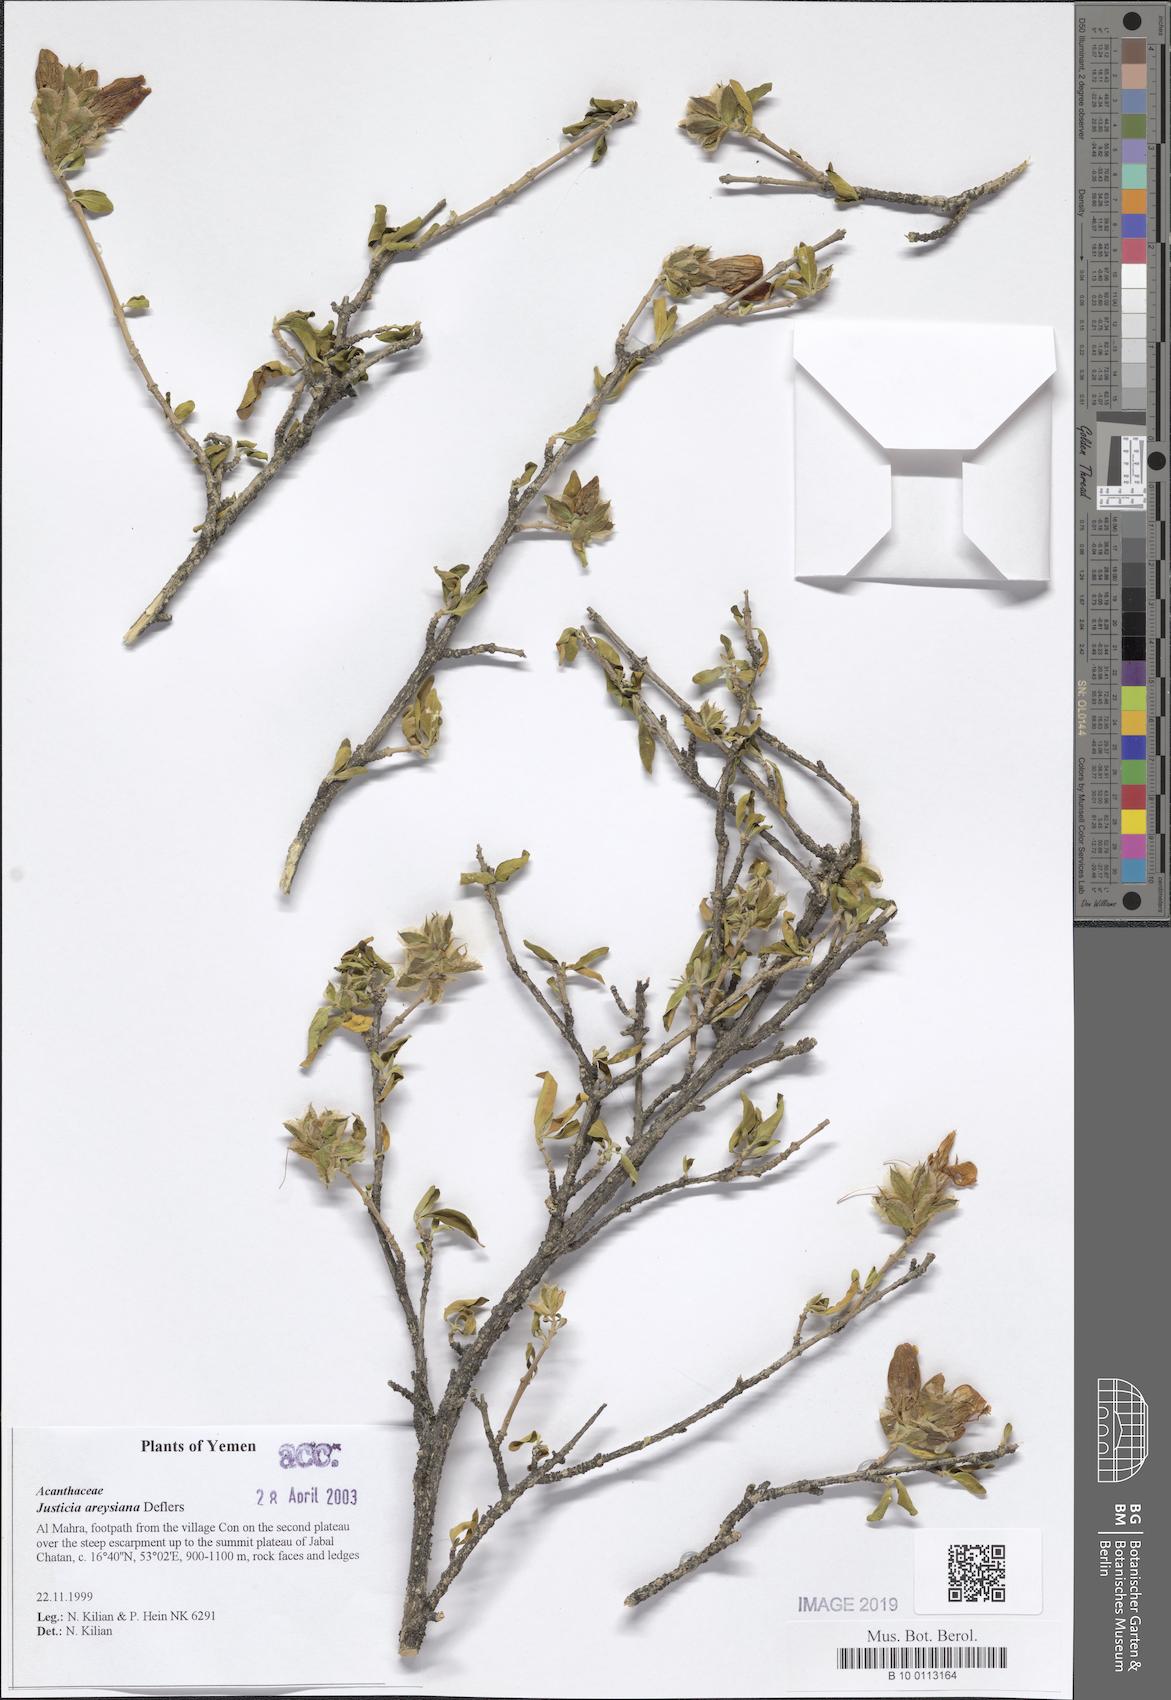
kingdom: Plantae
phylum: Tracheophyta
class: Magnoliopsida
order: Lamiales
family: Acanthaceae
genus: Justicia
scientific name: Justicia areysiana
